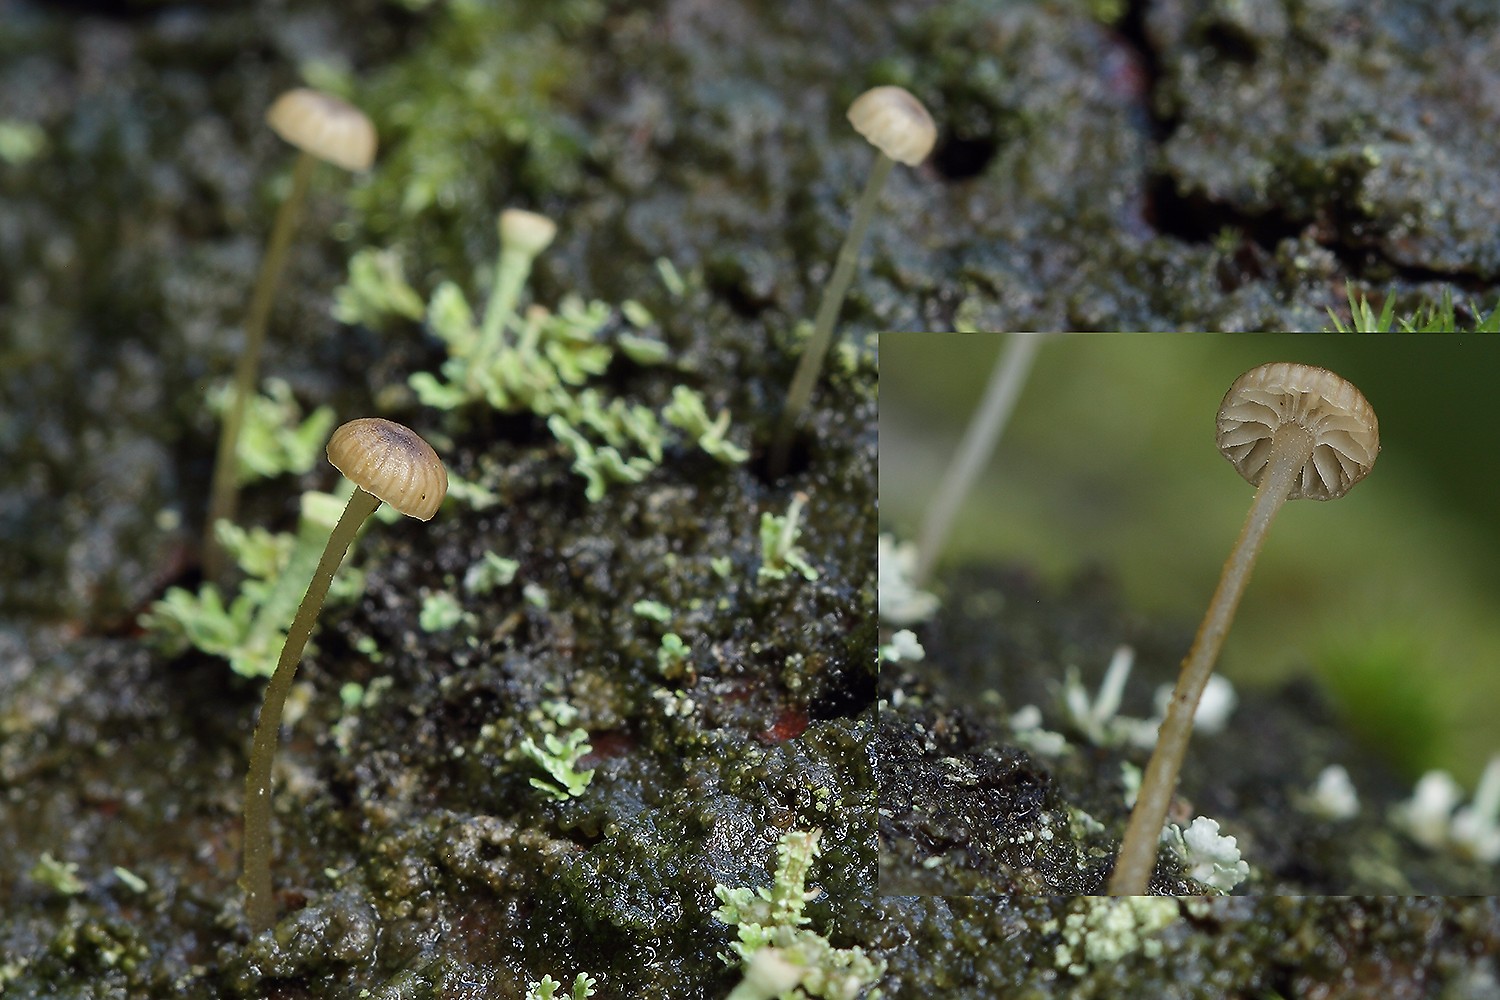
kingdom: Fungi
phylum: Basidiomycota
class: Agaricomycetes
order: Agaricales
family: Porotheleaceae
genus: Phloeomana
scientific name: Phloeomana speirea
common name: kvist-huesvamp
